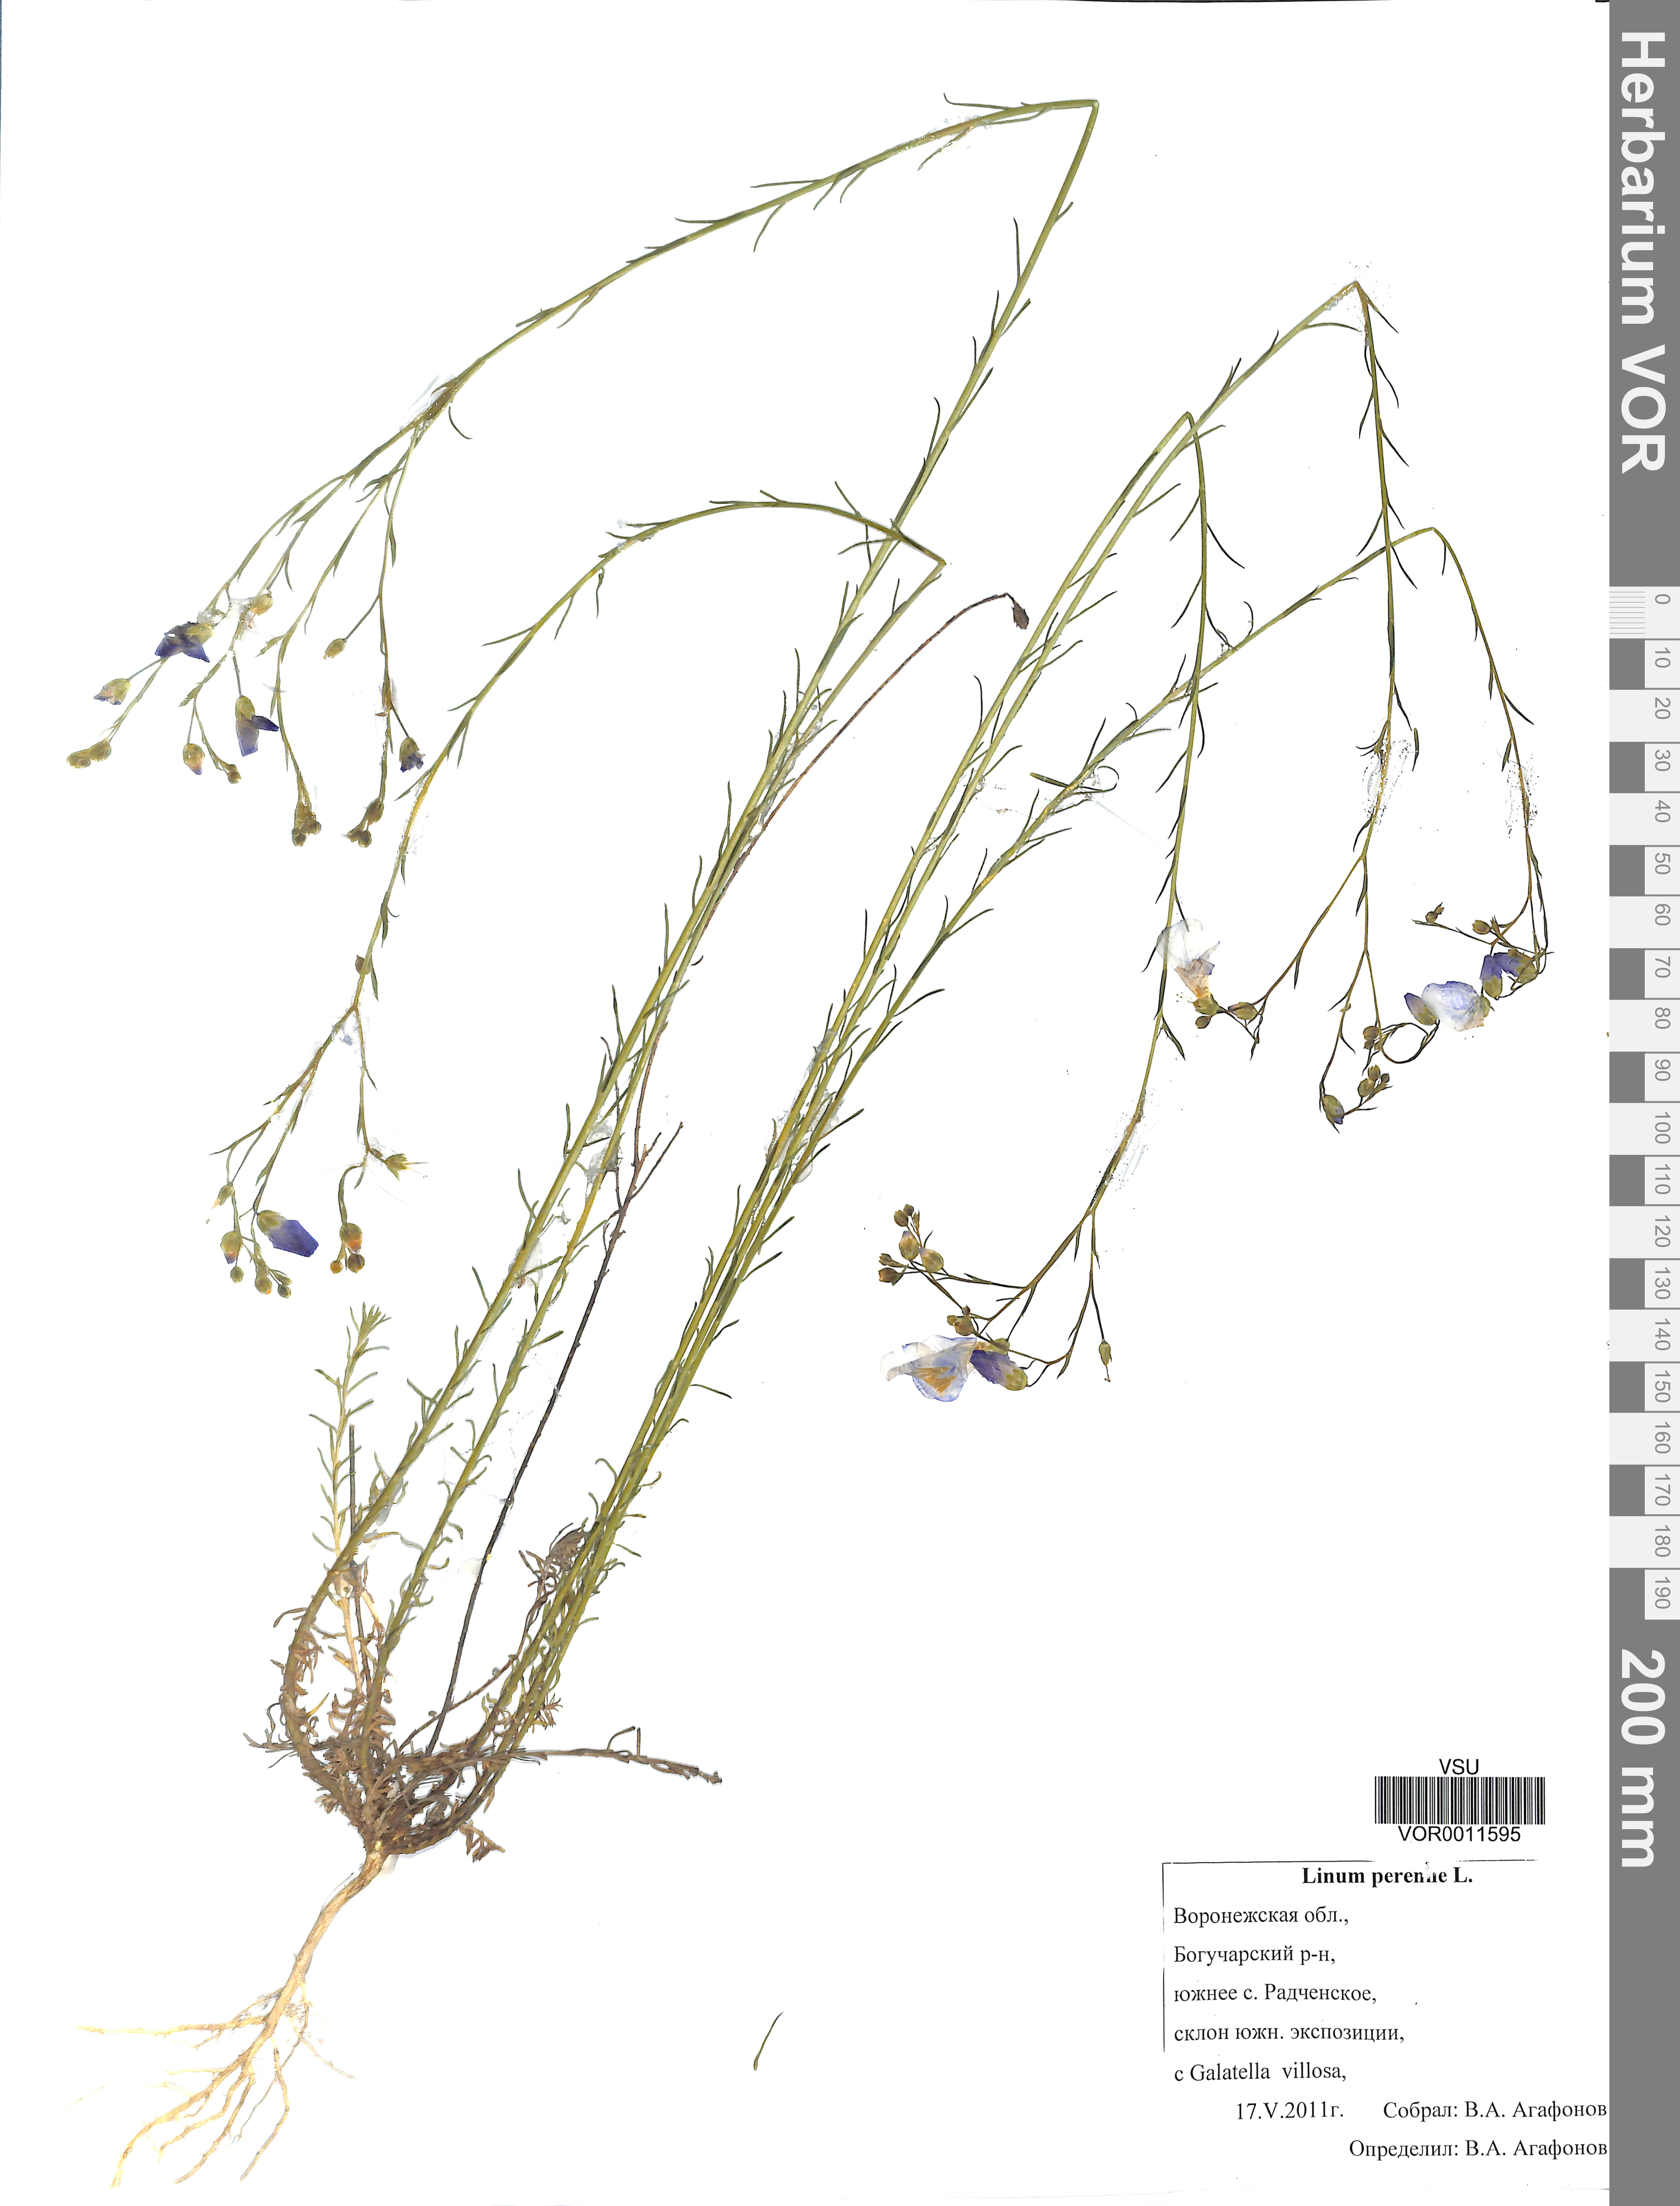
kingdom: Plantae
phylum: Tracheophyta
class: Magnoliopsida
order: Malpighiales
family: Linaceae
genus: Linum
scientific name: Linum perenne
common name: Blue flax
